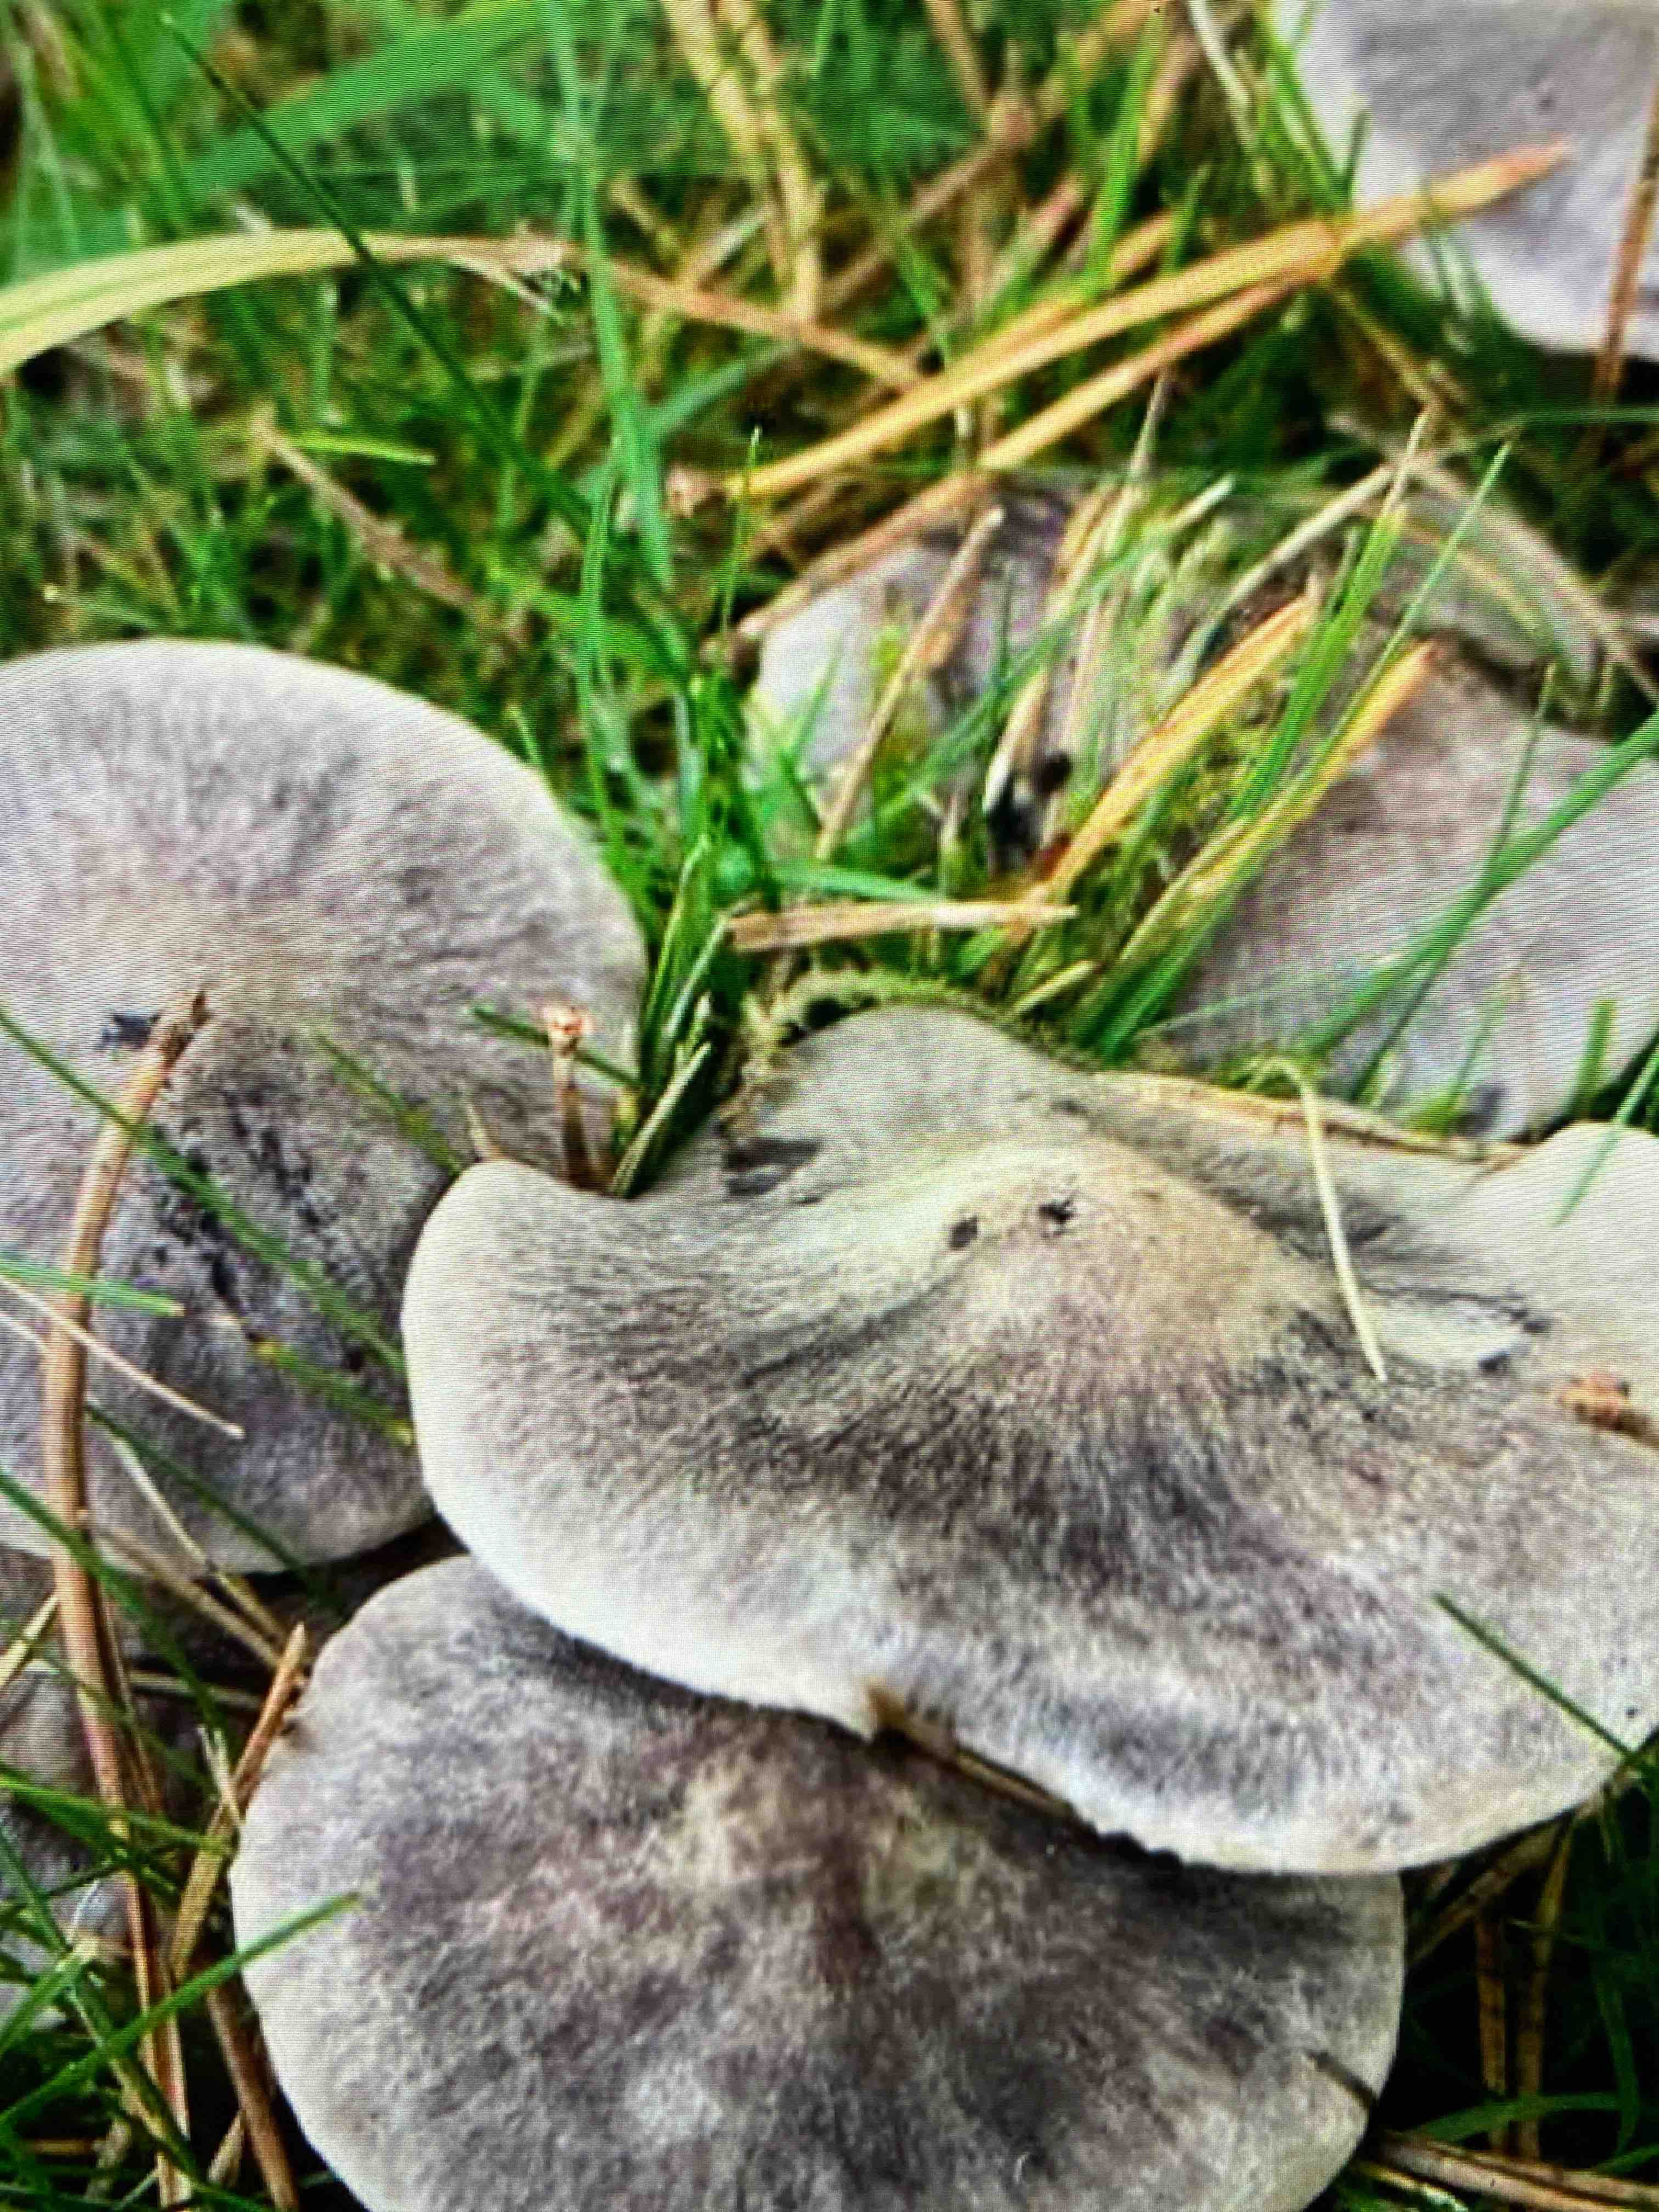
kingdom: Fungi
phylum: Basidiomycota
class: Agaricomycetes
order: Agaricales
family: Tricholomataceae
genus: Tricholoma
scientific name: Tricholoma terreum
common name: jordfarvet ridderhat
